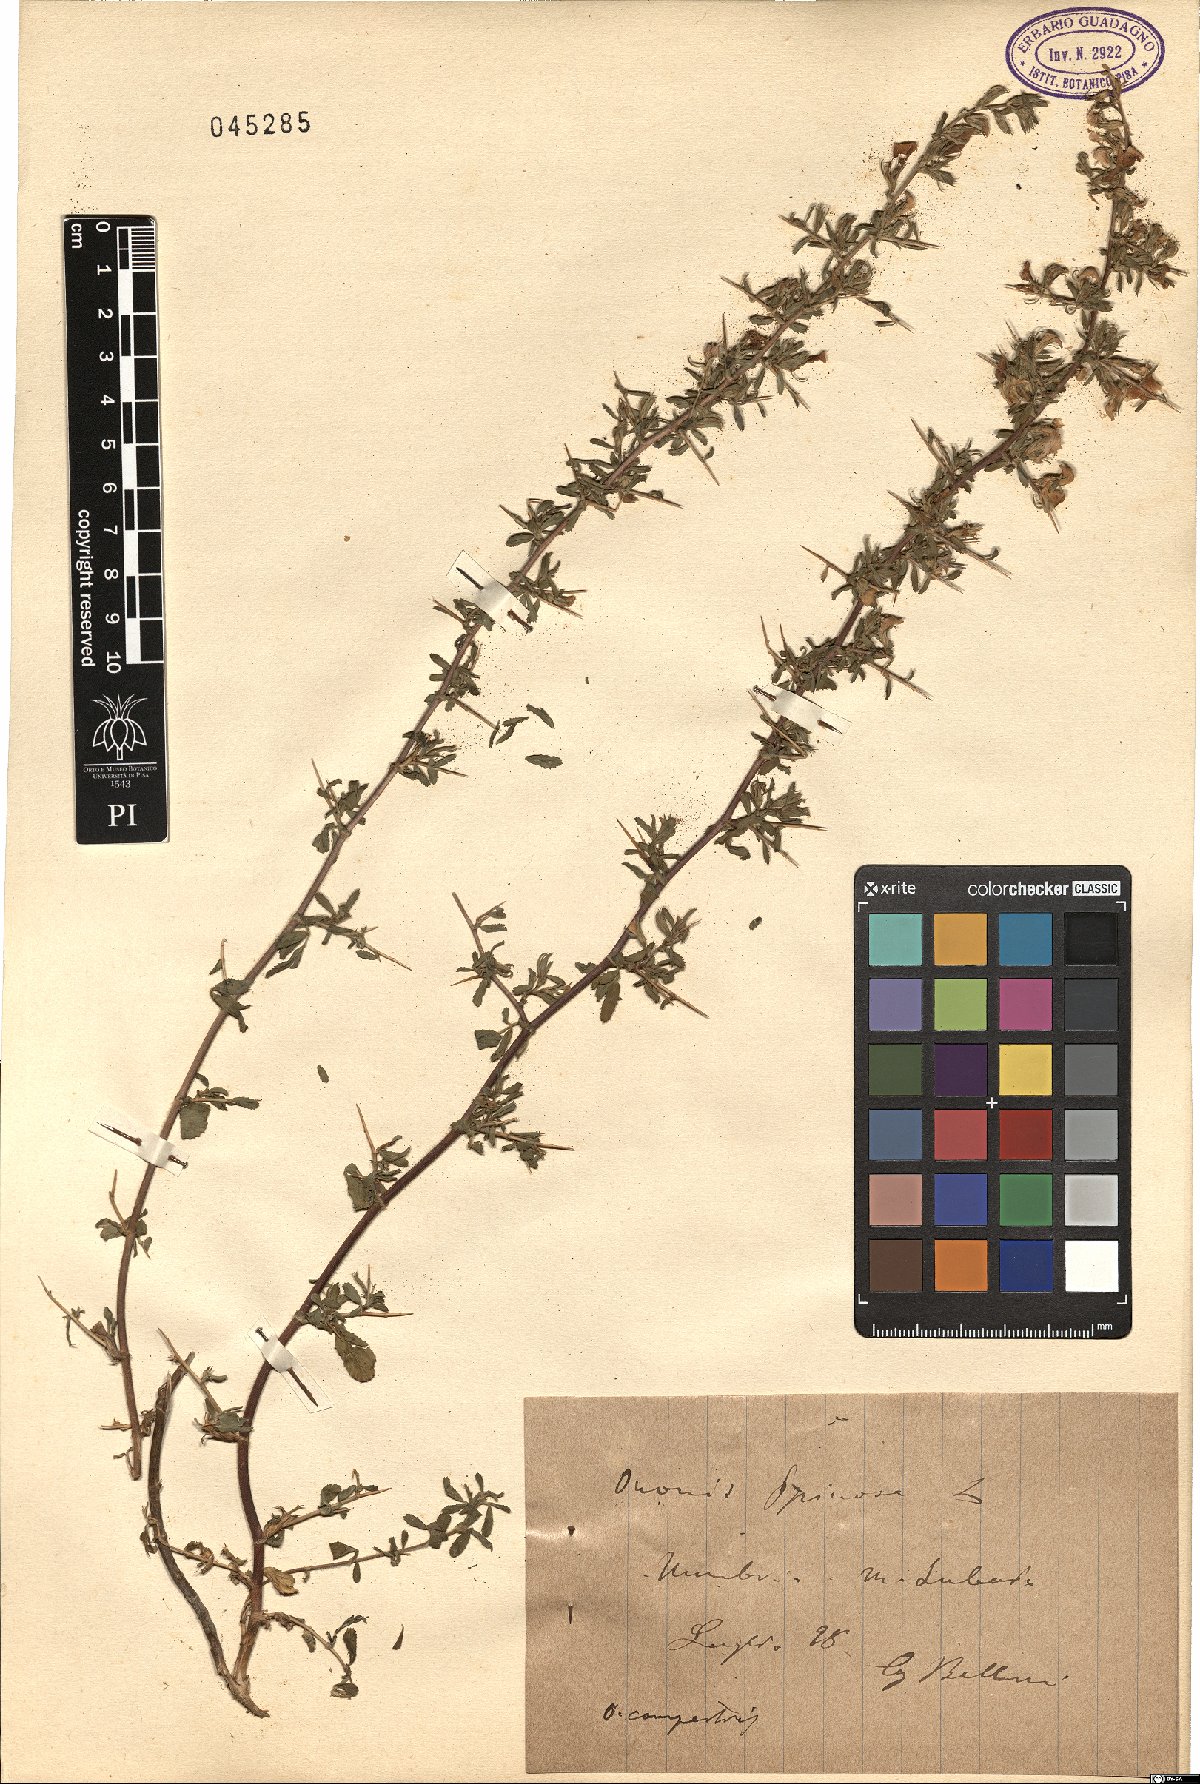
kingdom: Plantae
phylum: Tracheophyta
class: Magnoliopsida
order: Fabales
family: Fabaceae
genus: Ononis
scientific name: Ononis spinosa
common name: Spiny restharrow
